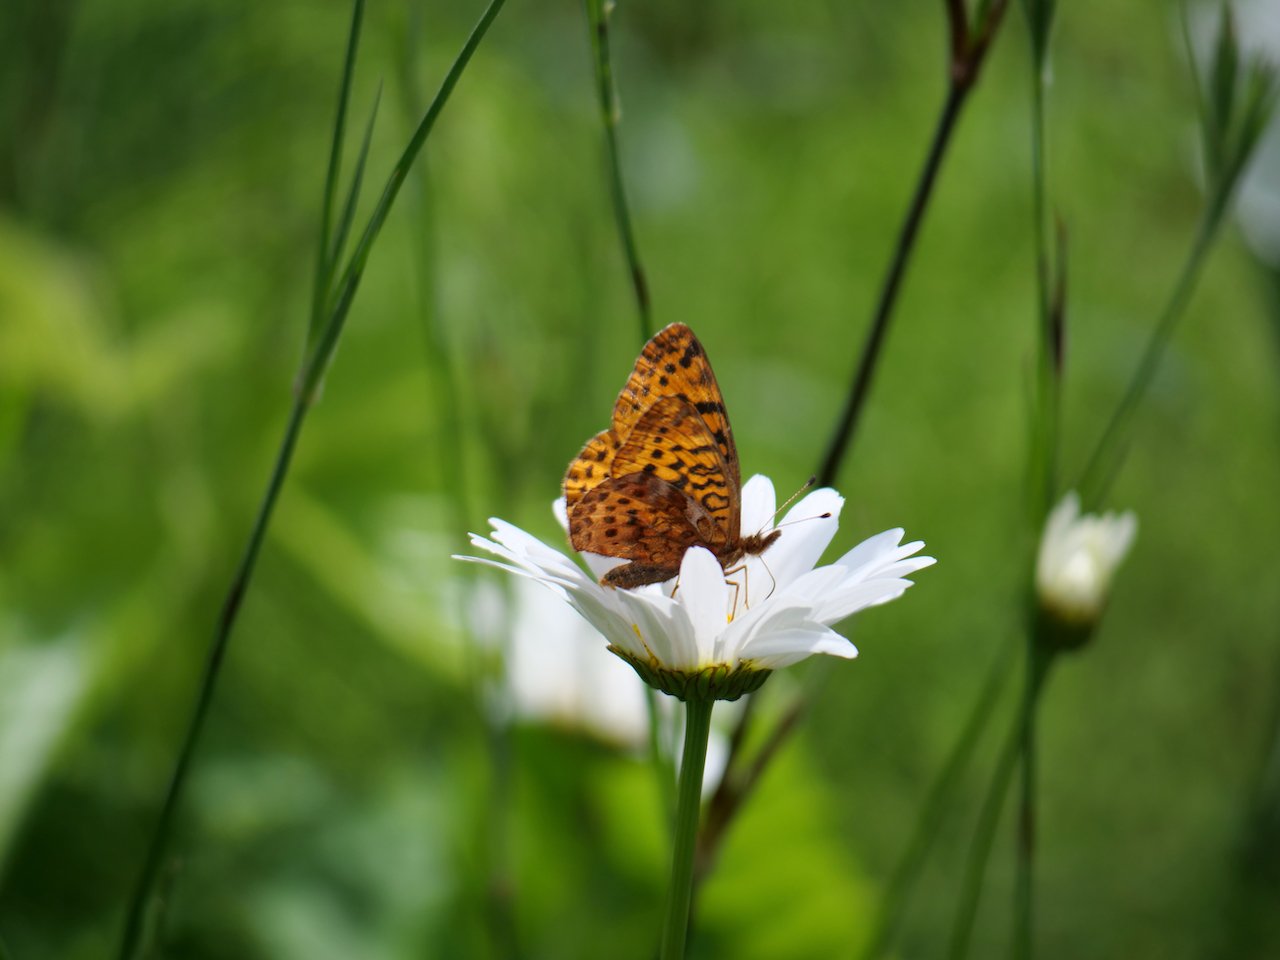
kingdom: Animalia
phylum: Arthropoda
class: Insecta
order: Lepidoptera
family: Nymphalidae
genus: Clossiana
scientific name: Clossiana toddi
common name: Meadow Fritillary
